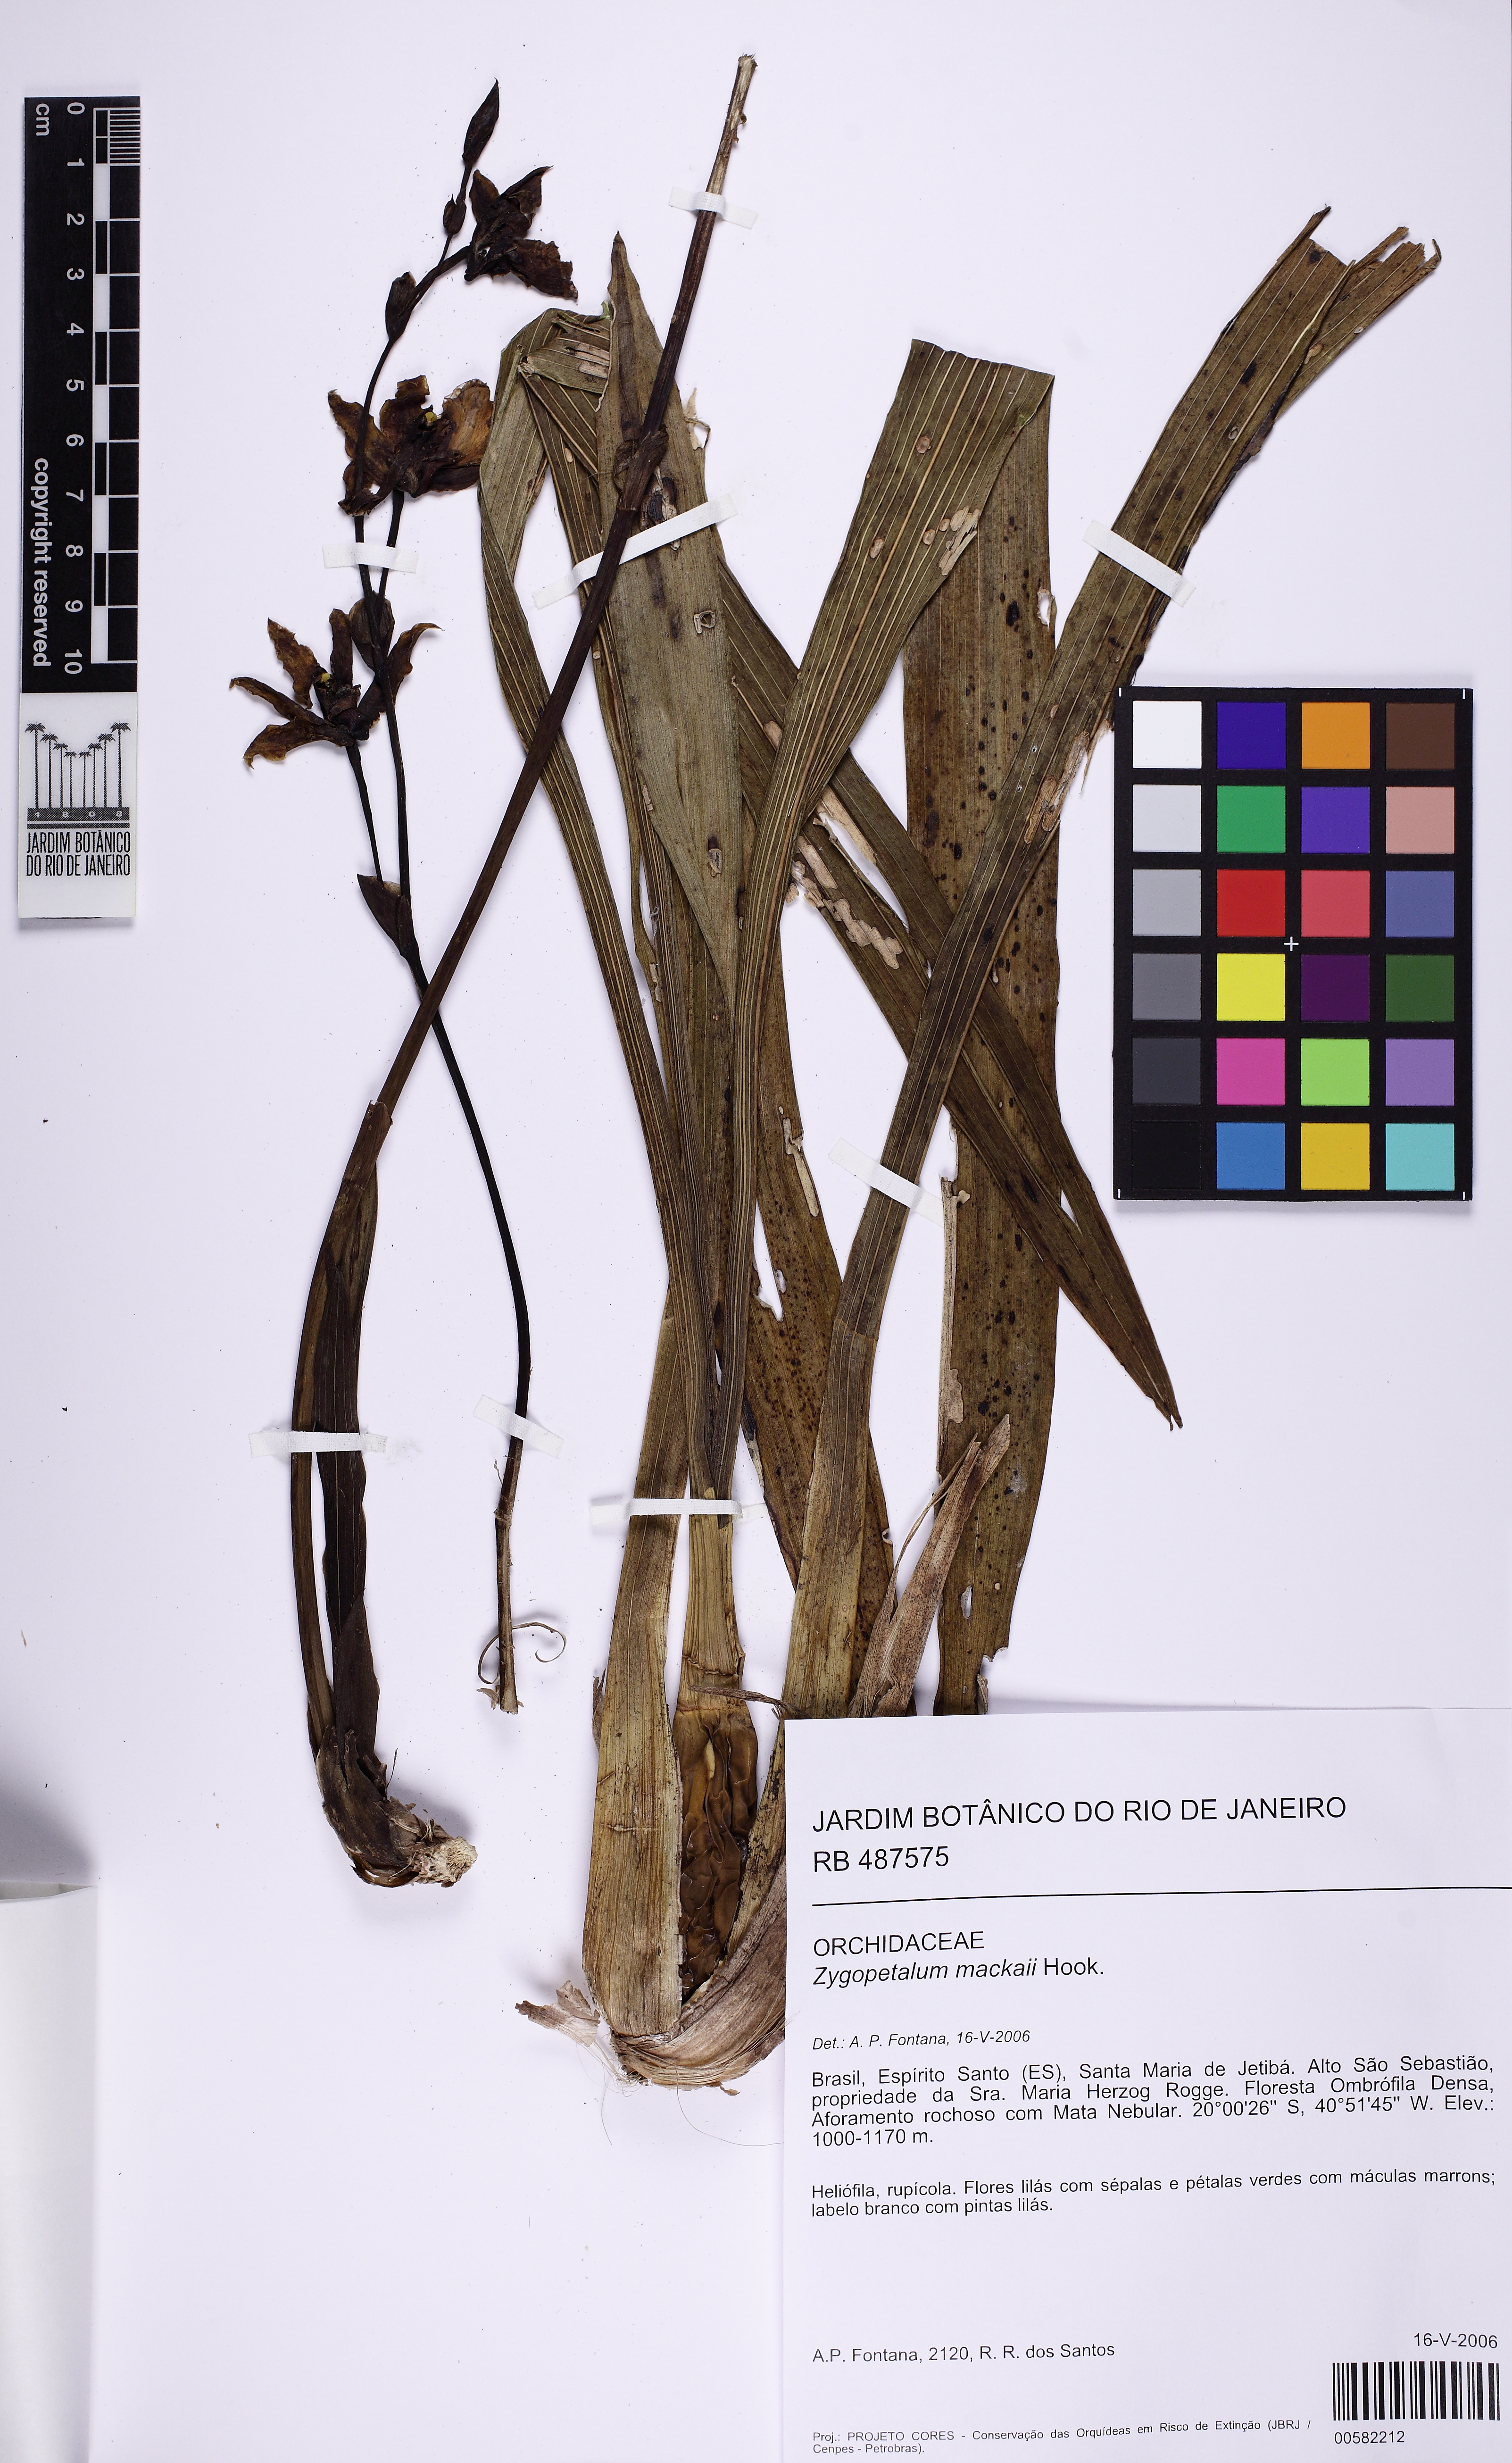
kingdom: Plantae
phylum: Tracheophyta
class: Liliopsida
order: Asparagales
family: Orchidaceae
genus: Zygopetalum
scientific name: Zygopetalum maculatum
